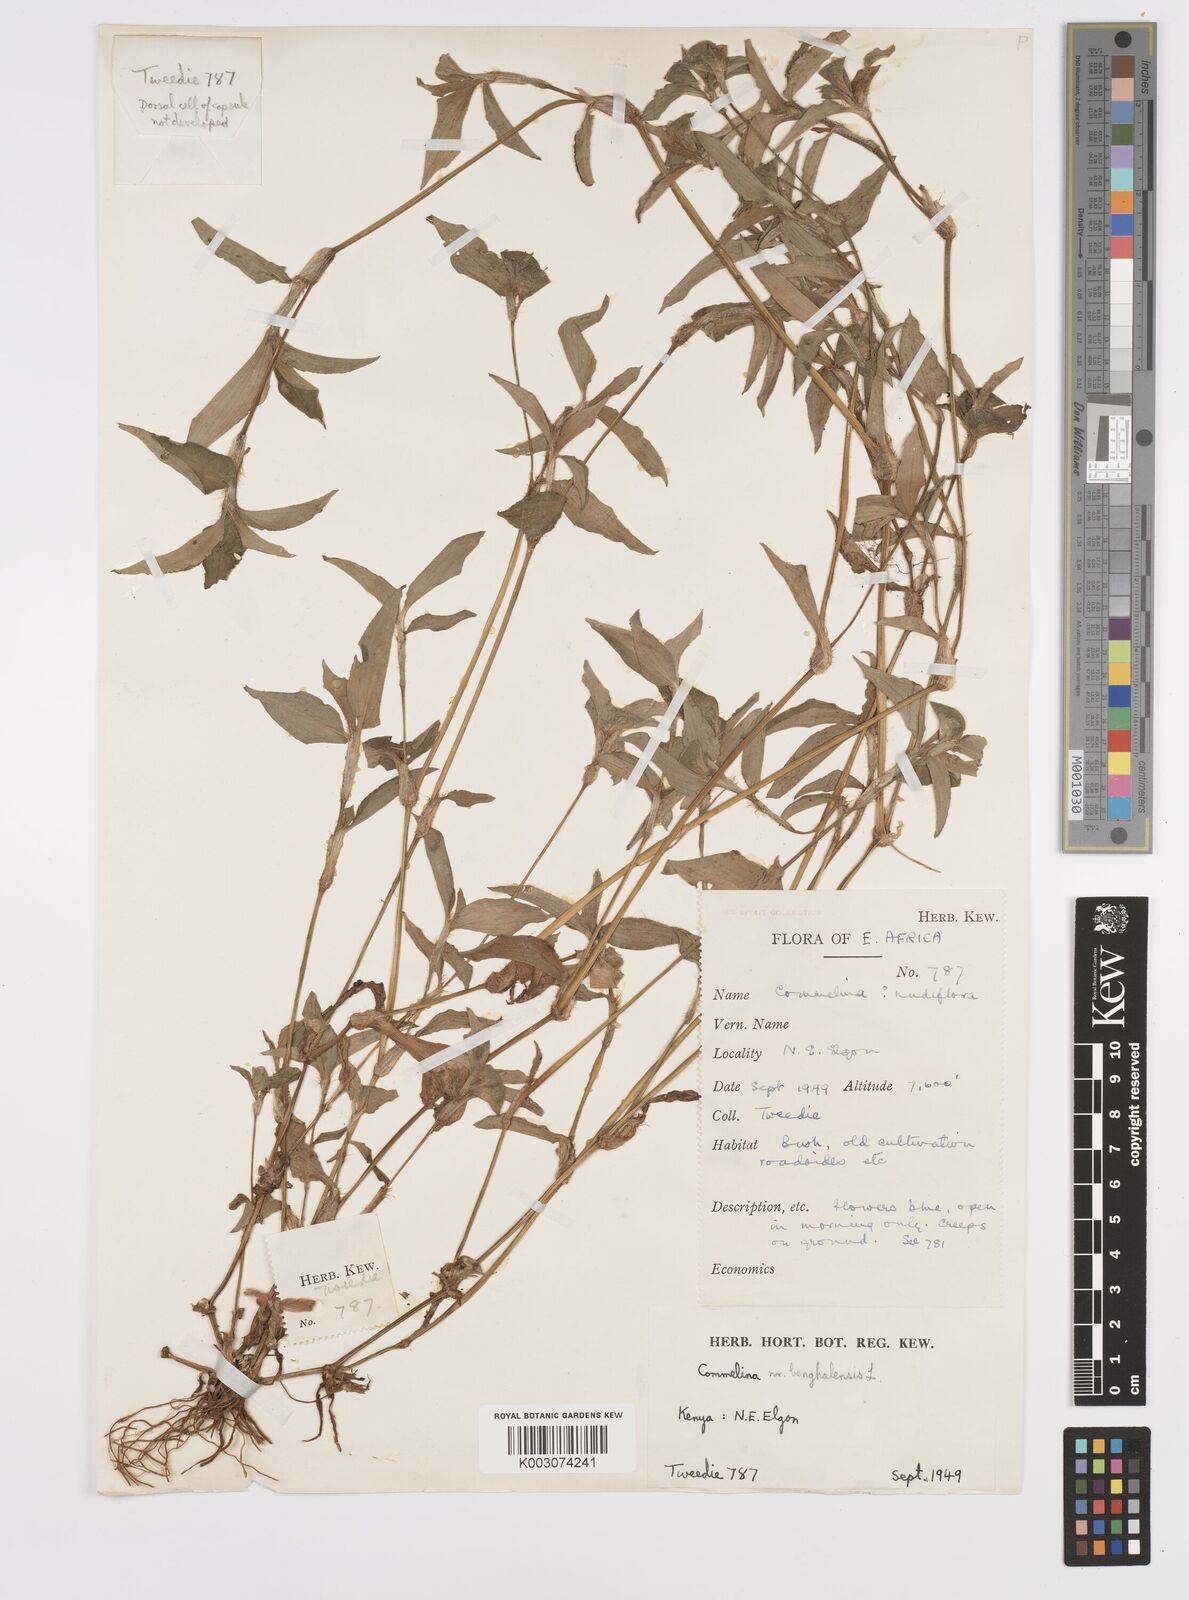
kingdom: Plantae
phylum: Tracheophyta
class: Liliopsida
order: Commelinales
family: Commelinaceae
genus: Commelina
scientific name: Commelina benghalensis
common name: Jio
